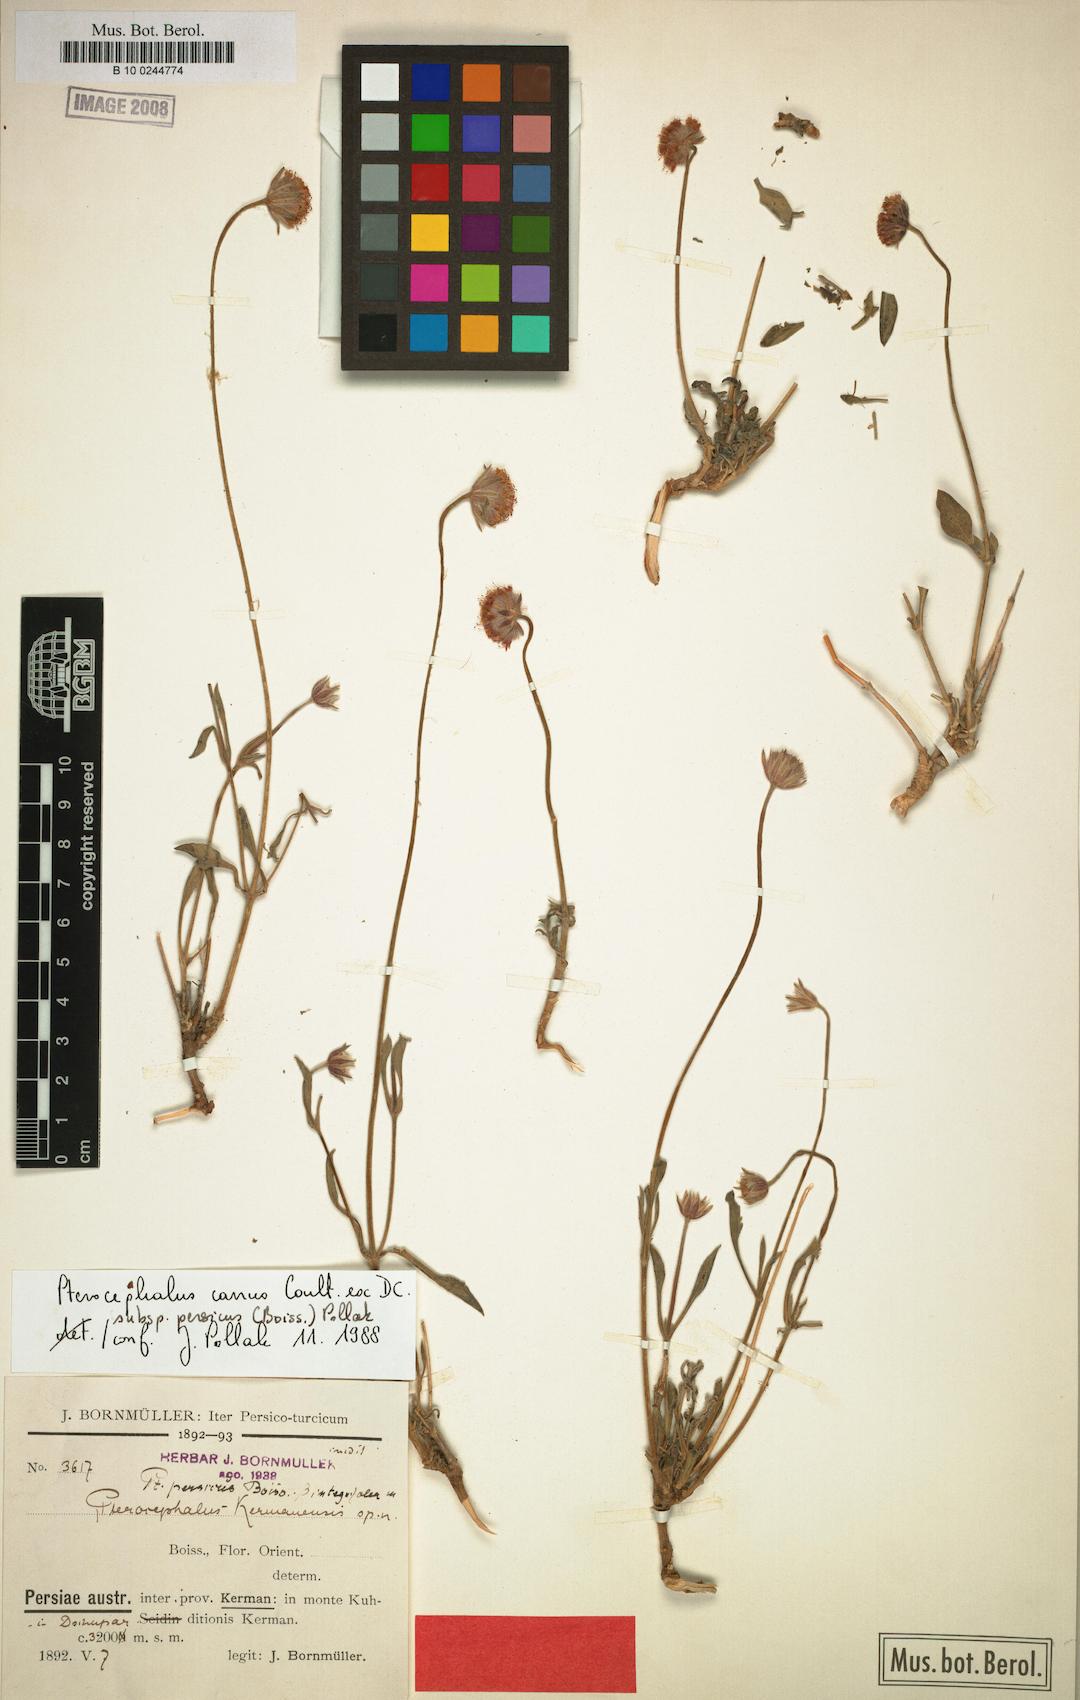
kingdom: Plantae
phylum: Tracheophyta
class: Magnoliopsida
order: Dipsacales
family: Caprifoliaceae
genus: Pterocephalus
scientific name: Pterocephalus canus
